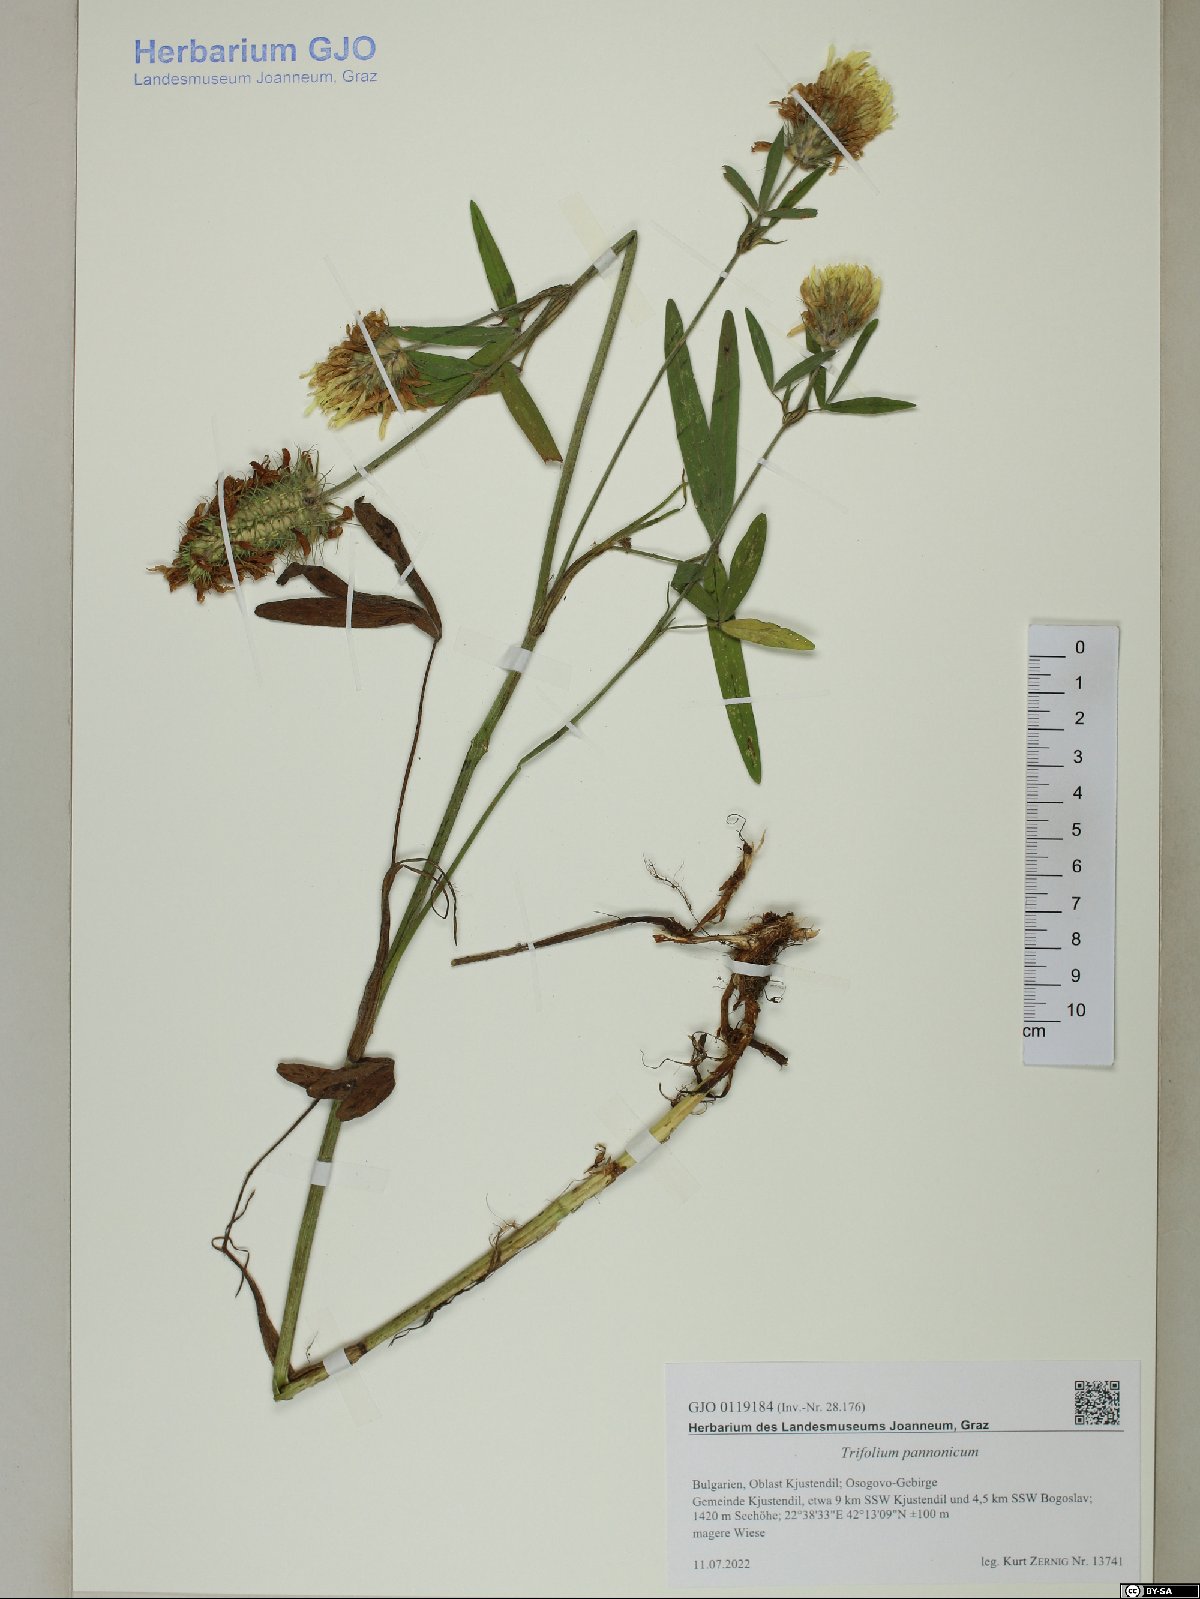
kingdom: Plantae
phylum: Tracheophyta
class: Magnoliopsida
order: Fabales
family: Fabaceae
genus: Trifolium
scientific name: Trifolium pannonicum
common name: Hungarian clover
